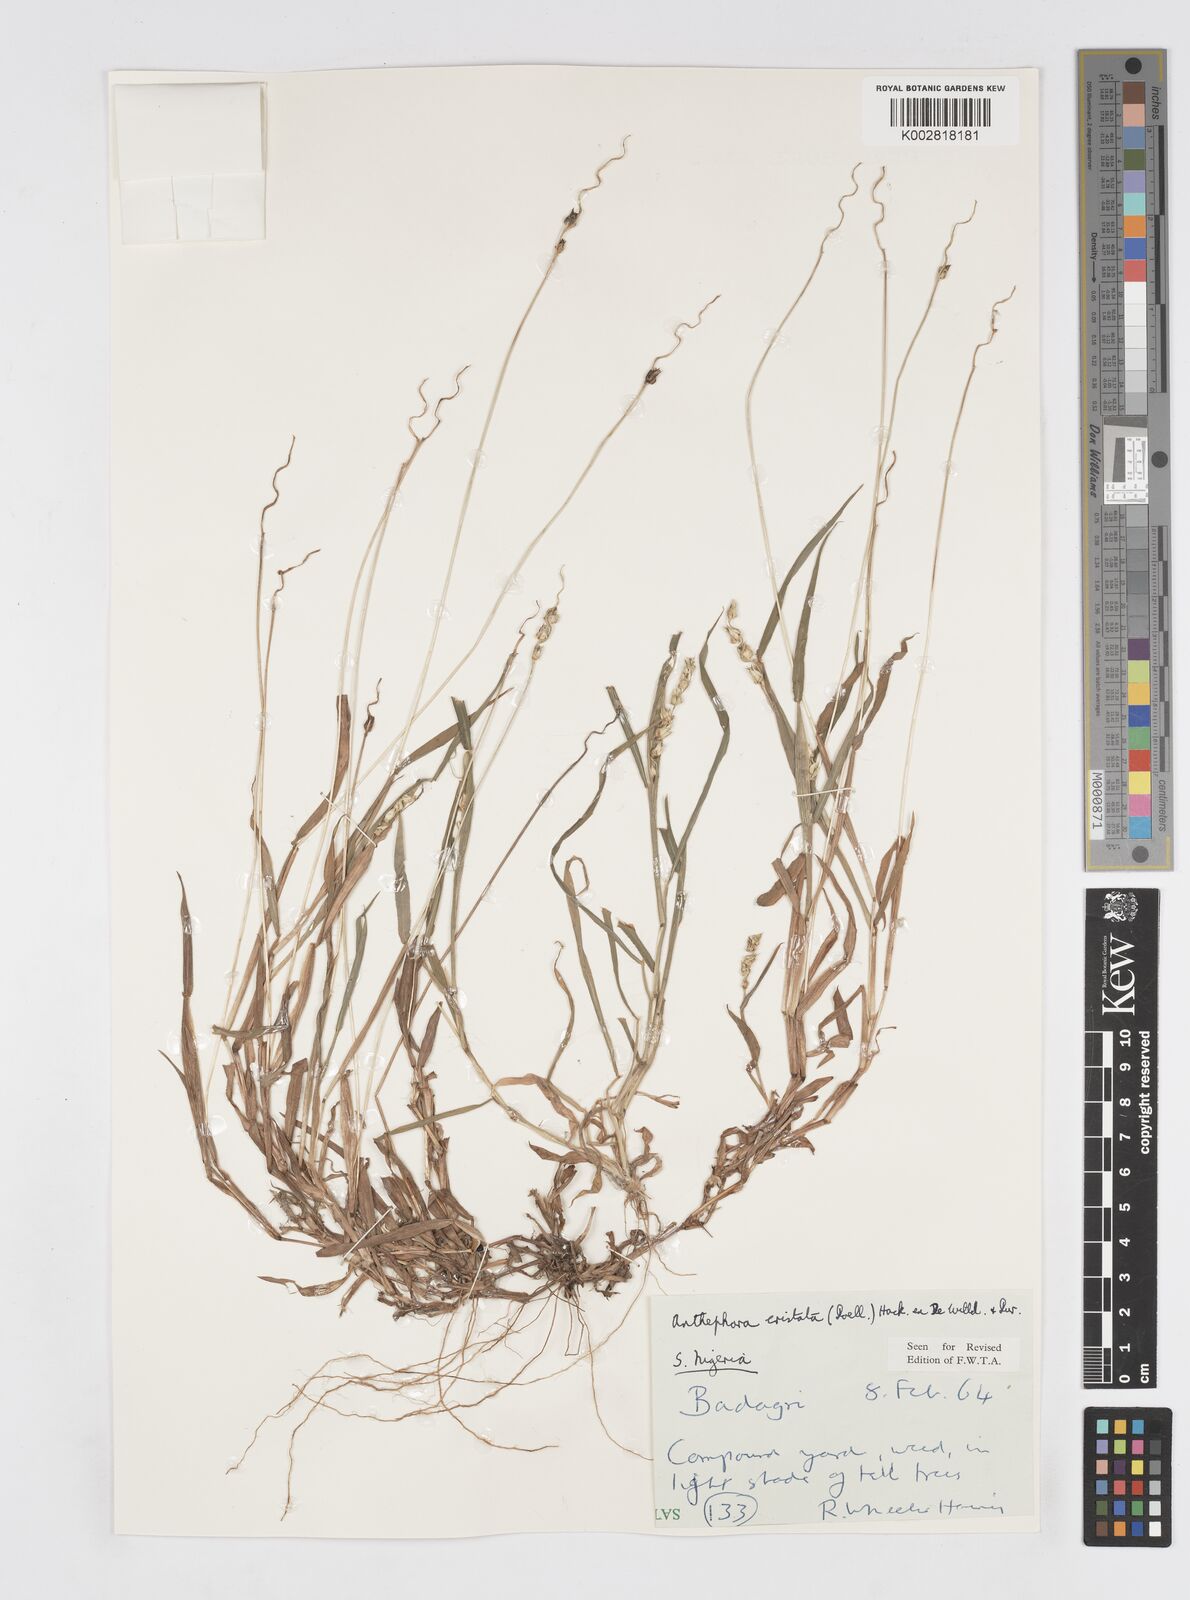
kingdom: Plantae
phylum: Tracheophyta
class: Liliopsida
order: Poales
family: Poaceae
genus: Anthephora
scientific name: Anthephora cristata
